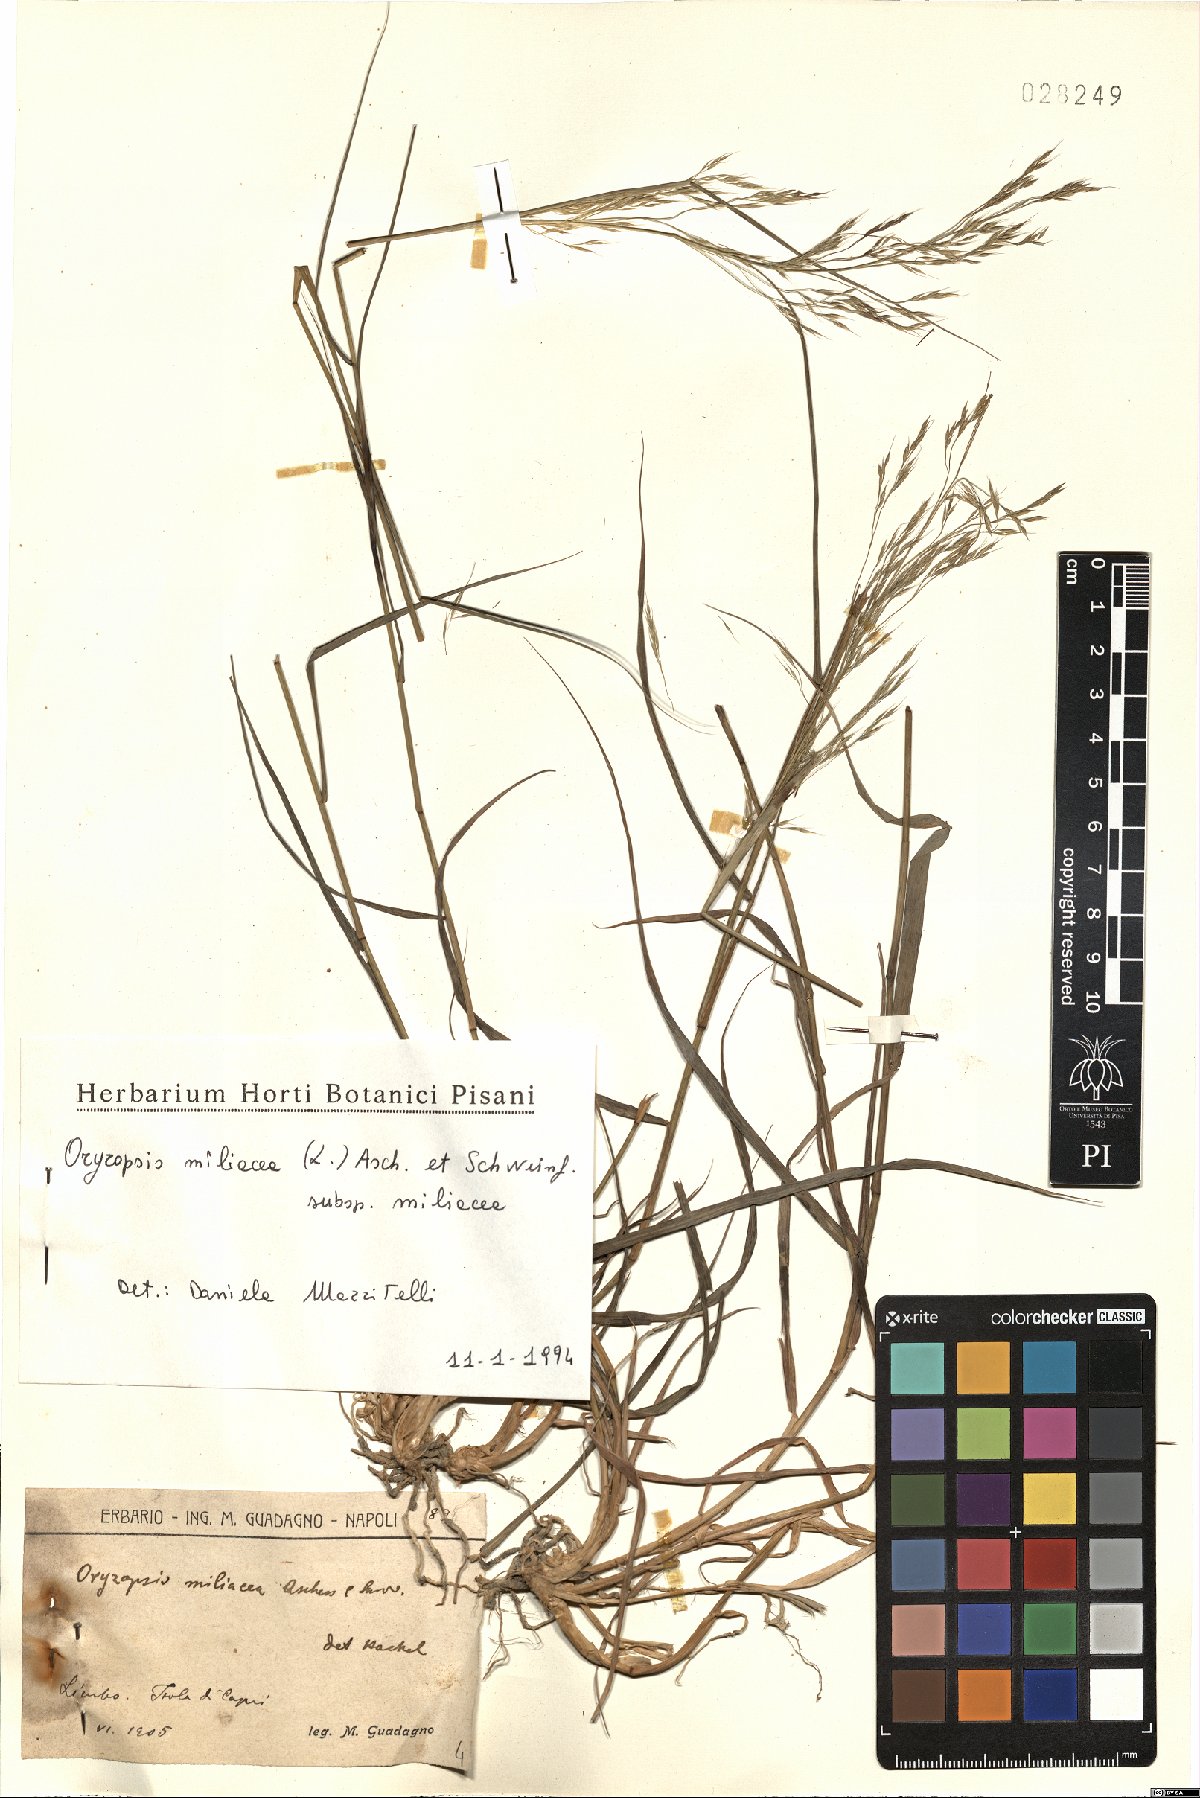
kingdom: Plantae
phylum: Tracheophyta
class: Liliopsida
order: Poales
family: Poaceae
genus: Oryzopsis
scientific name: Oryzopsis miliacea
